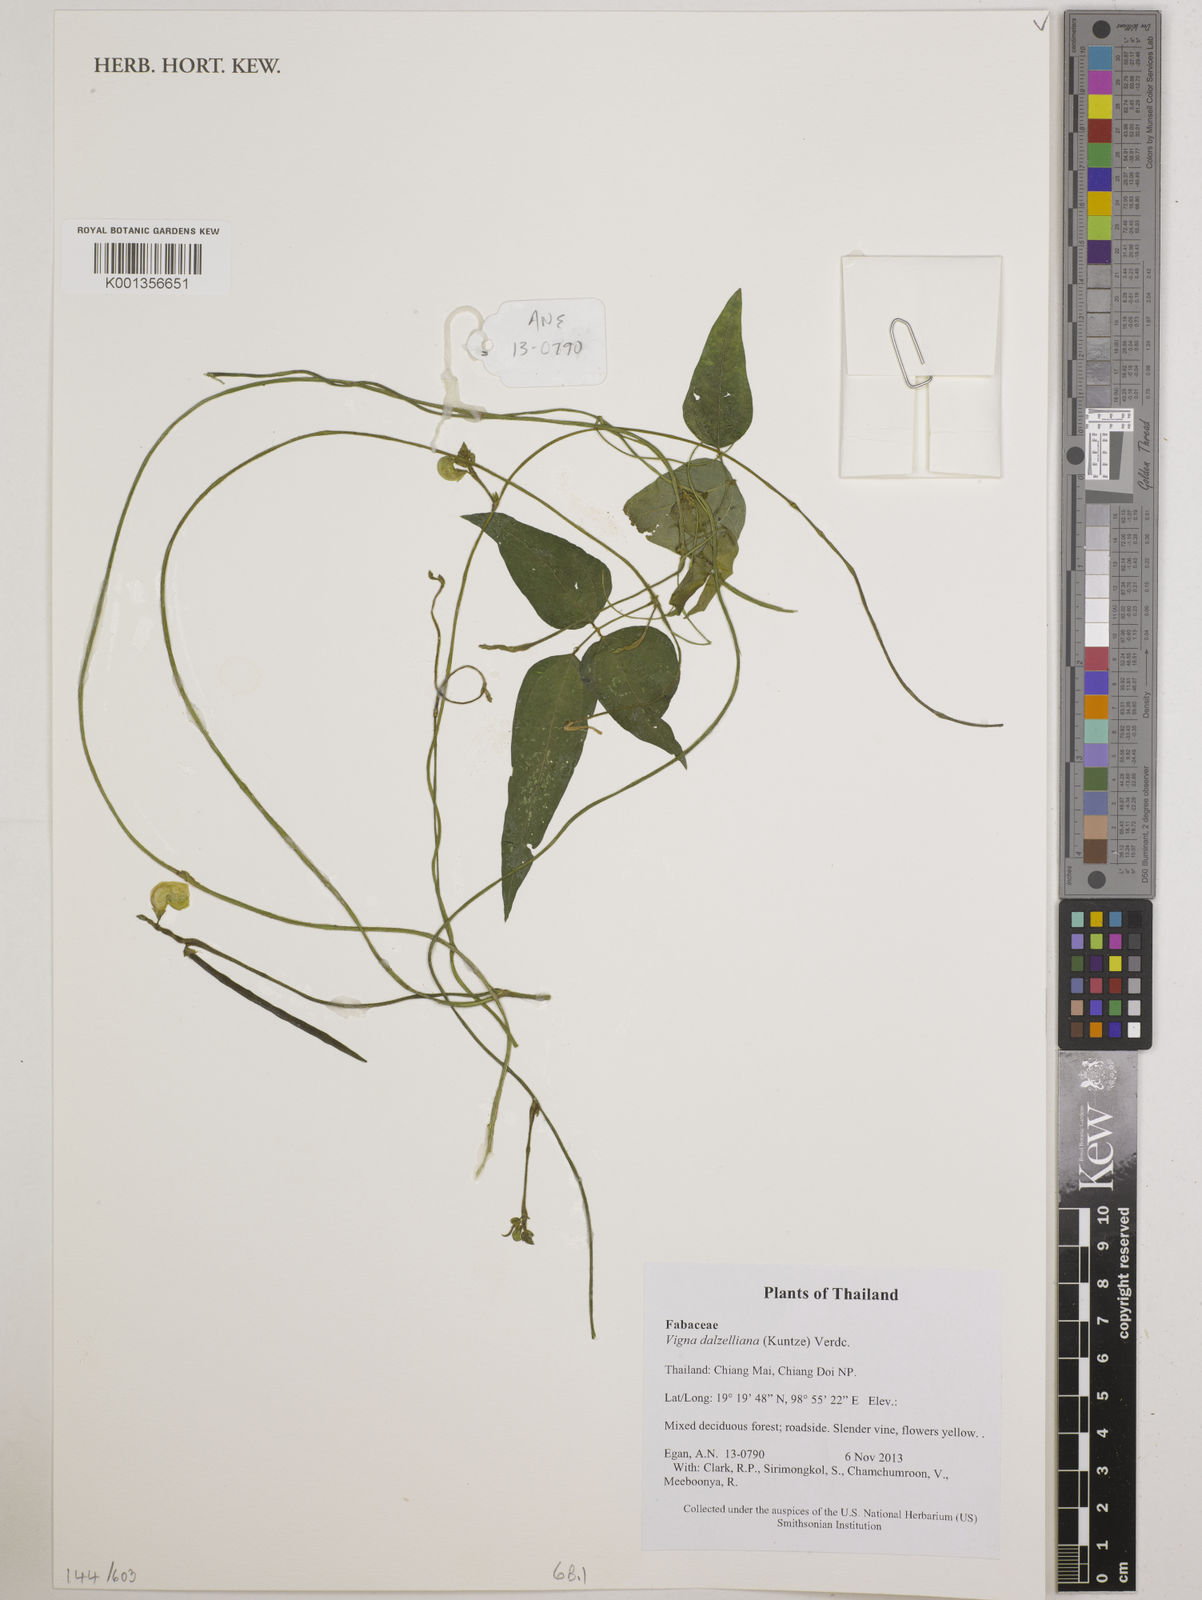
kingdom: Plantae
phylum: Tracheophyta
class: Magnoliopsida
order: Fabales
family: Fabaceae
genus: Vigna
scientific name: Vigna dalzelliana
